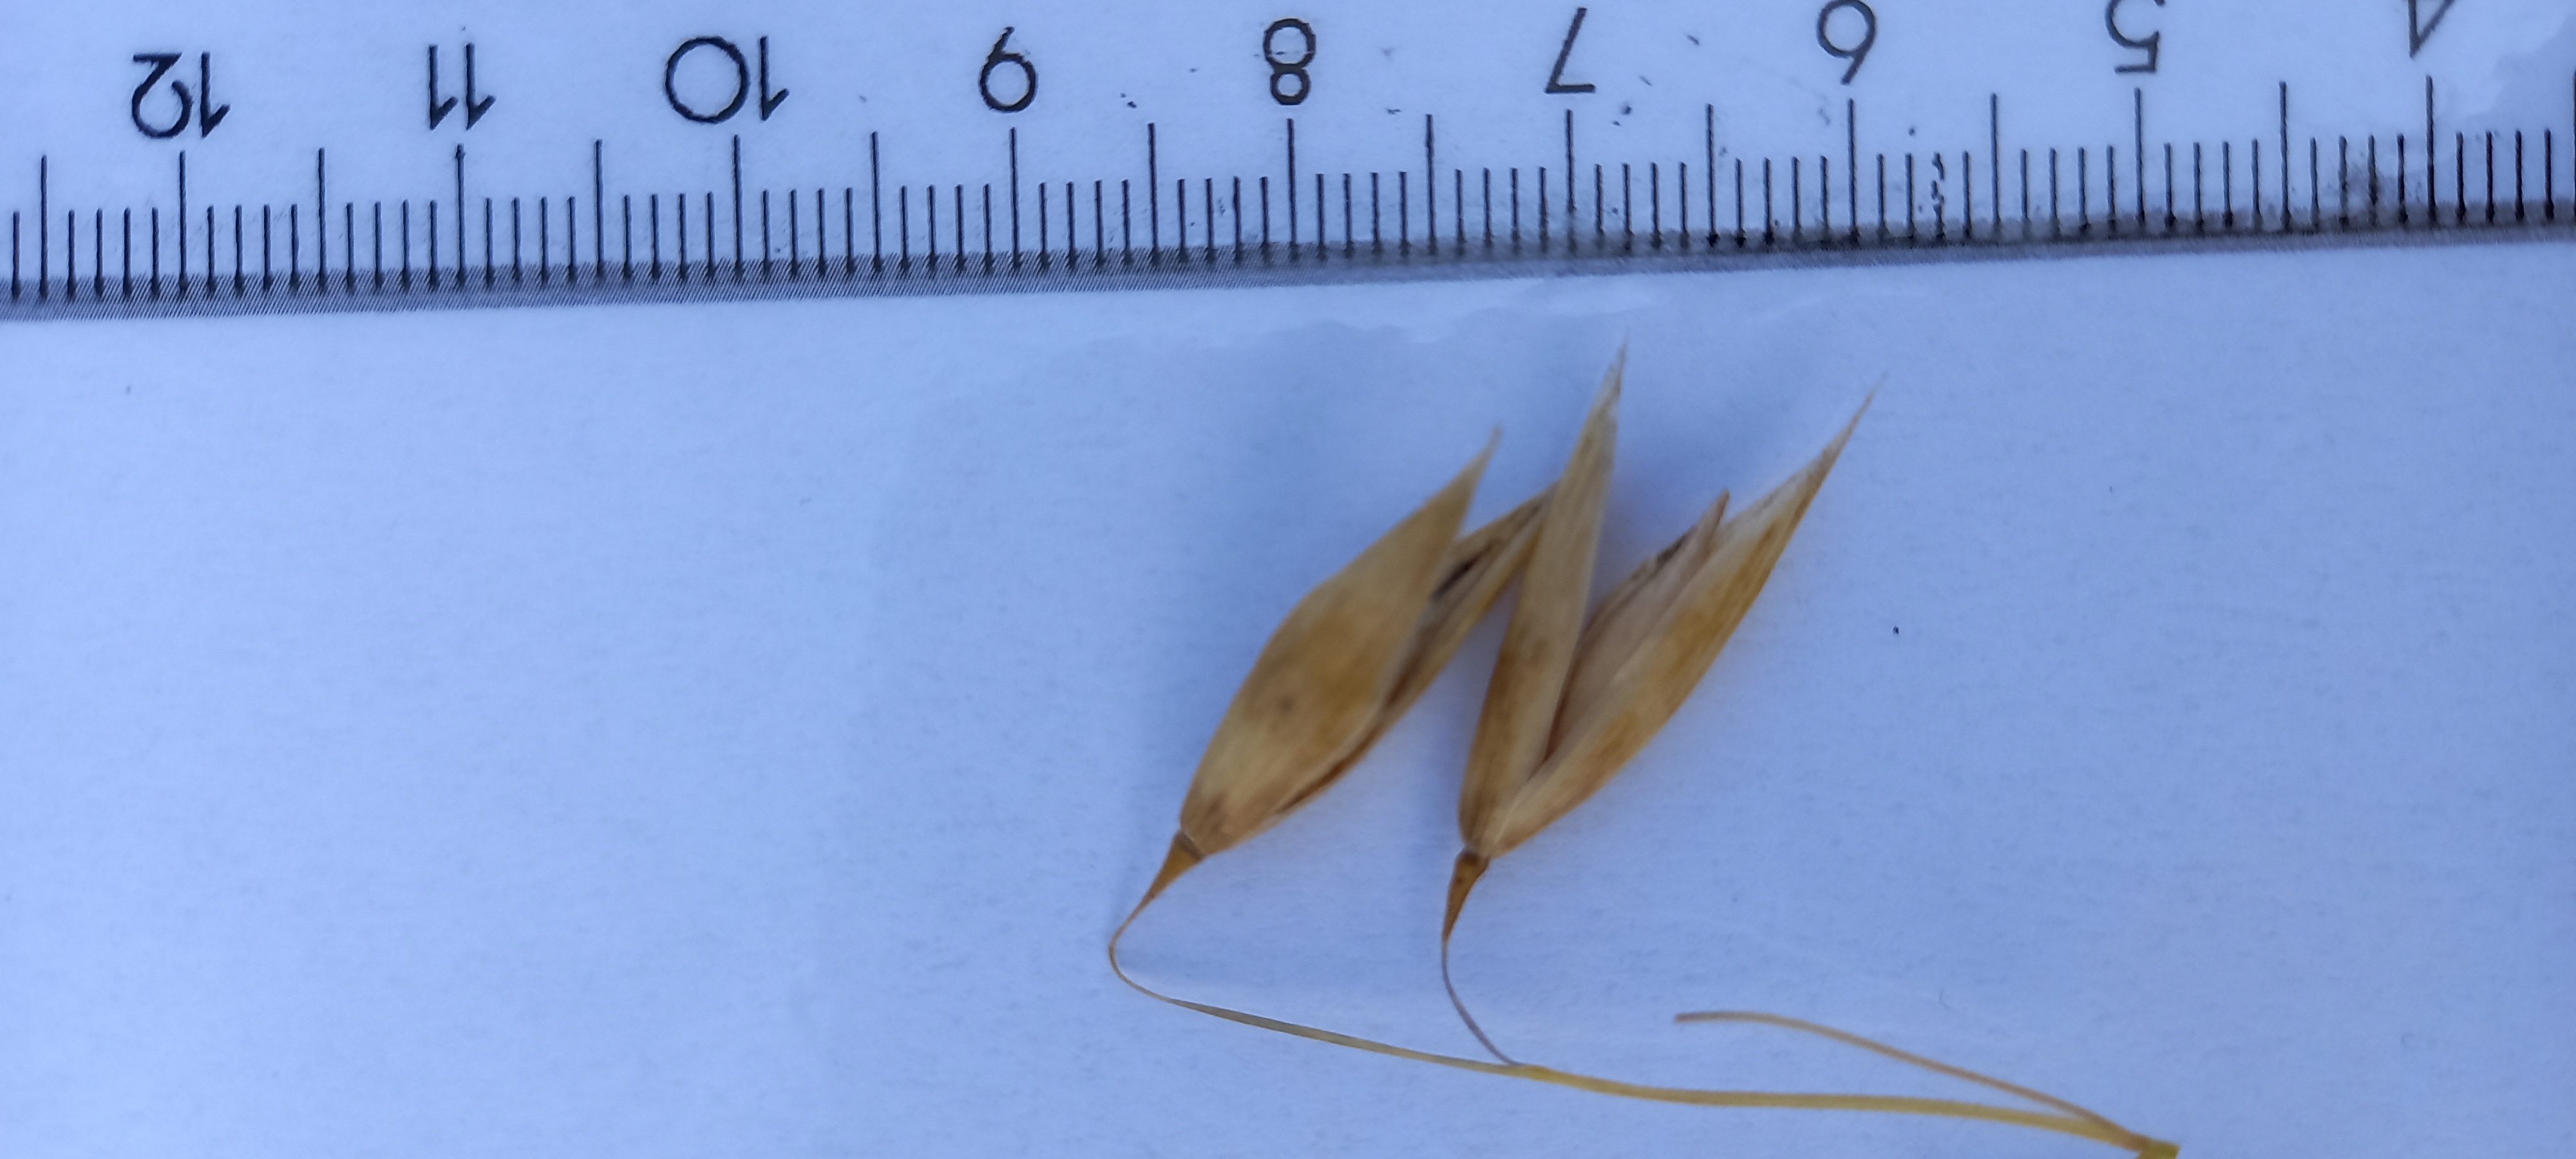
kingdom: Plantae
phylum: Tracheophyta
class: Liliopsida
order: Poales
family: Poaceae
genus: Avena
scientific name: Avena sativa
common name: Oat
